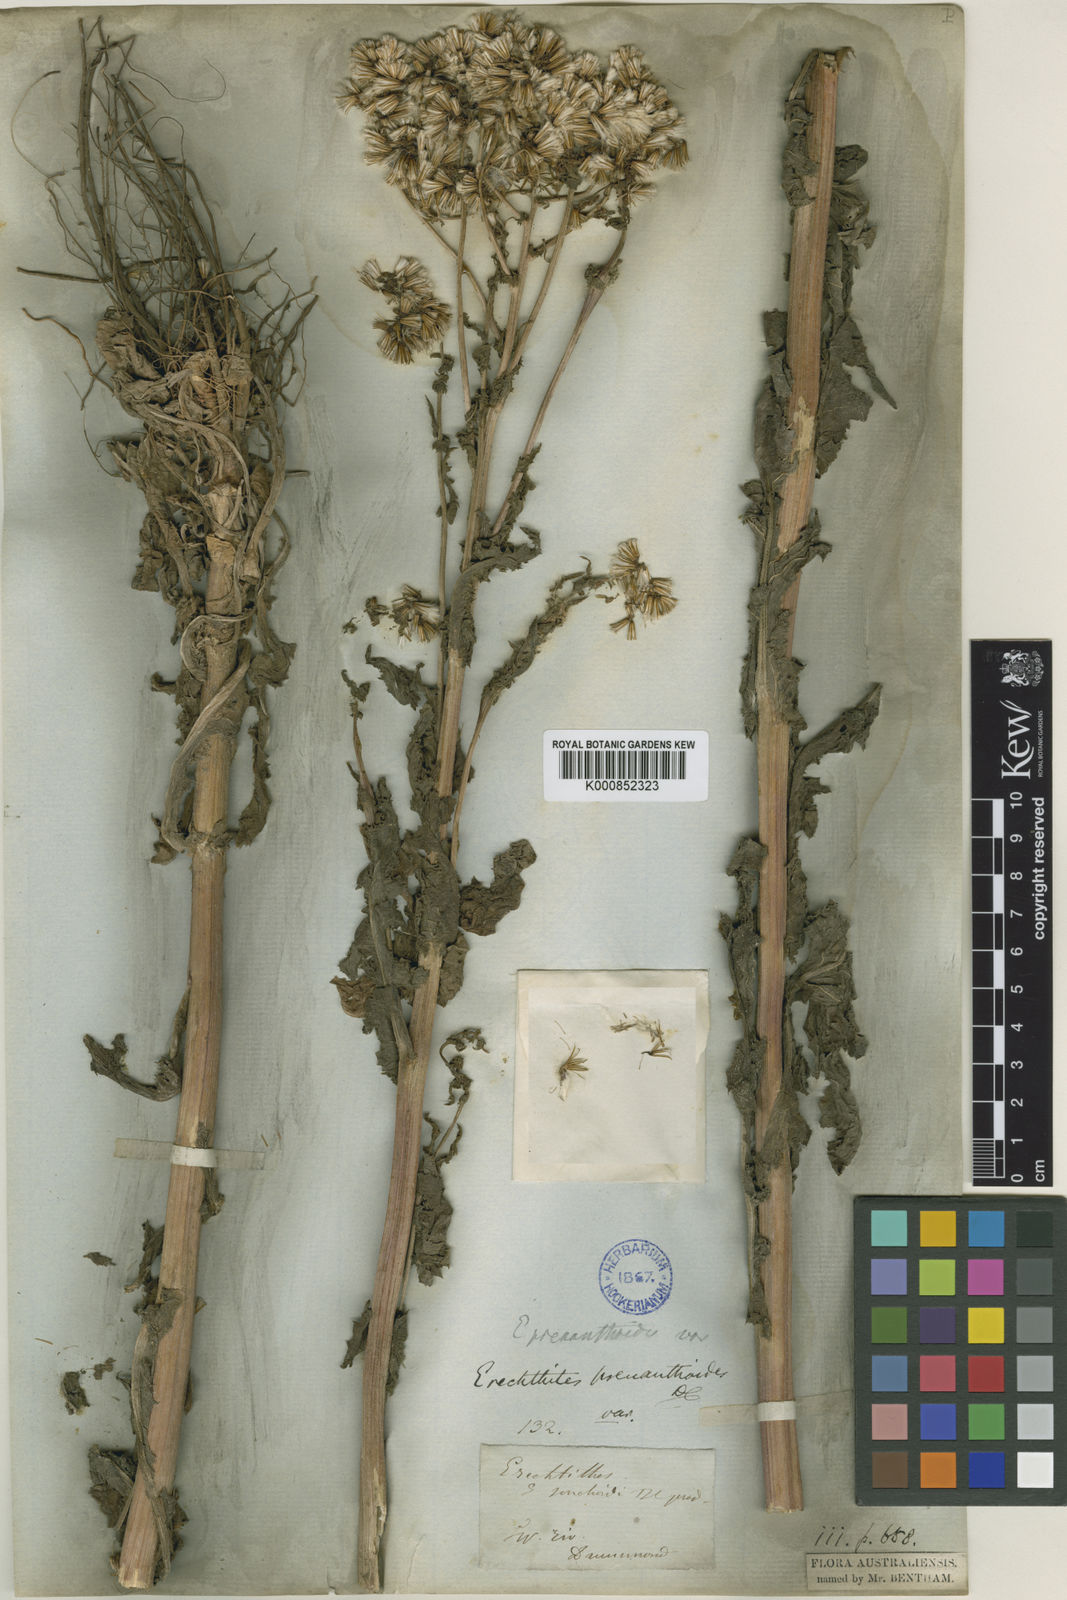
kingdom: Plantae
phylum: Tracheophyta
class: Magnoliopsida
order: Asterales
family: Asteraceae
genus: Senecio
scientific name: Senecio minimus
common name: Toothed fireweed
